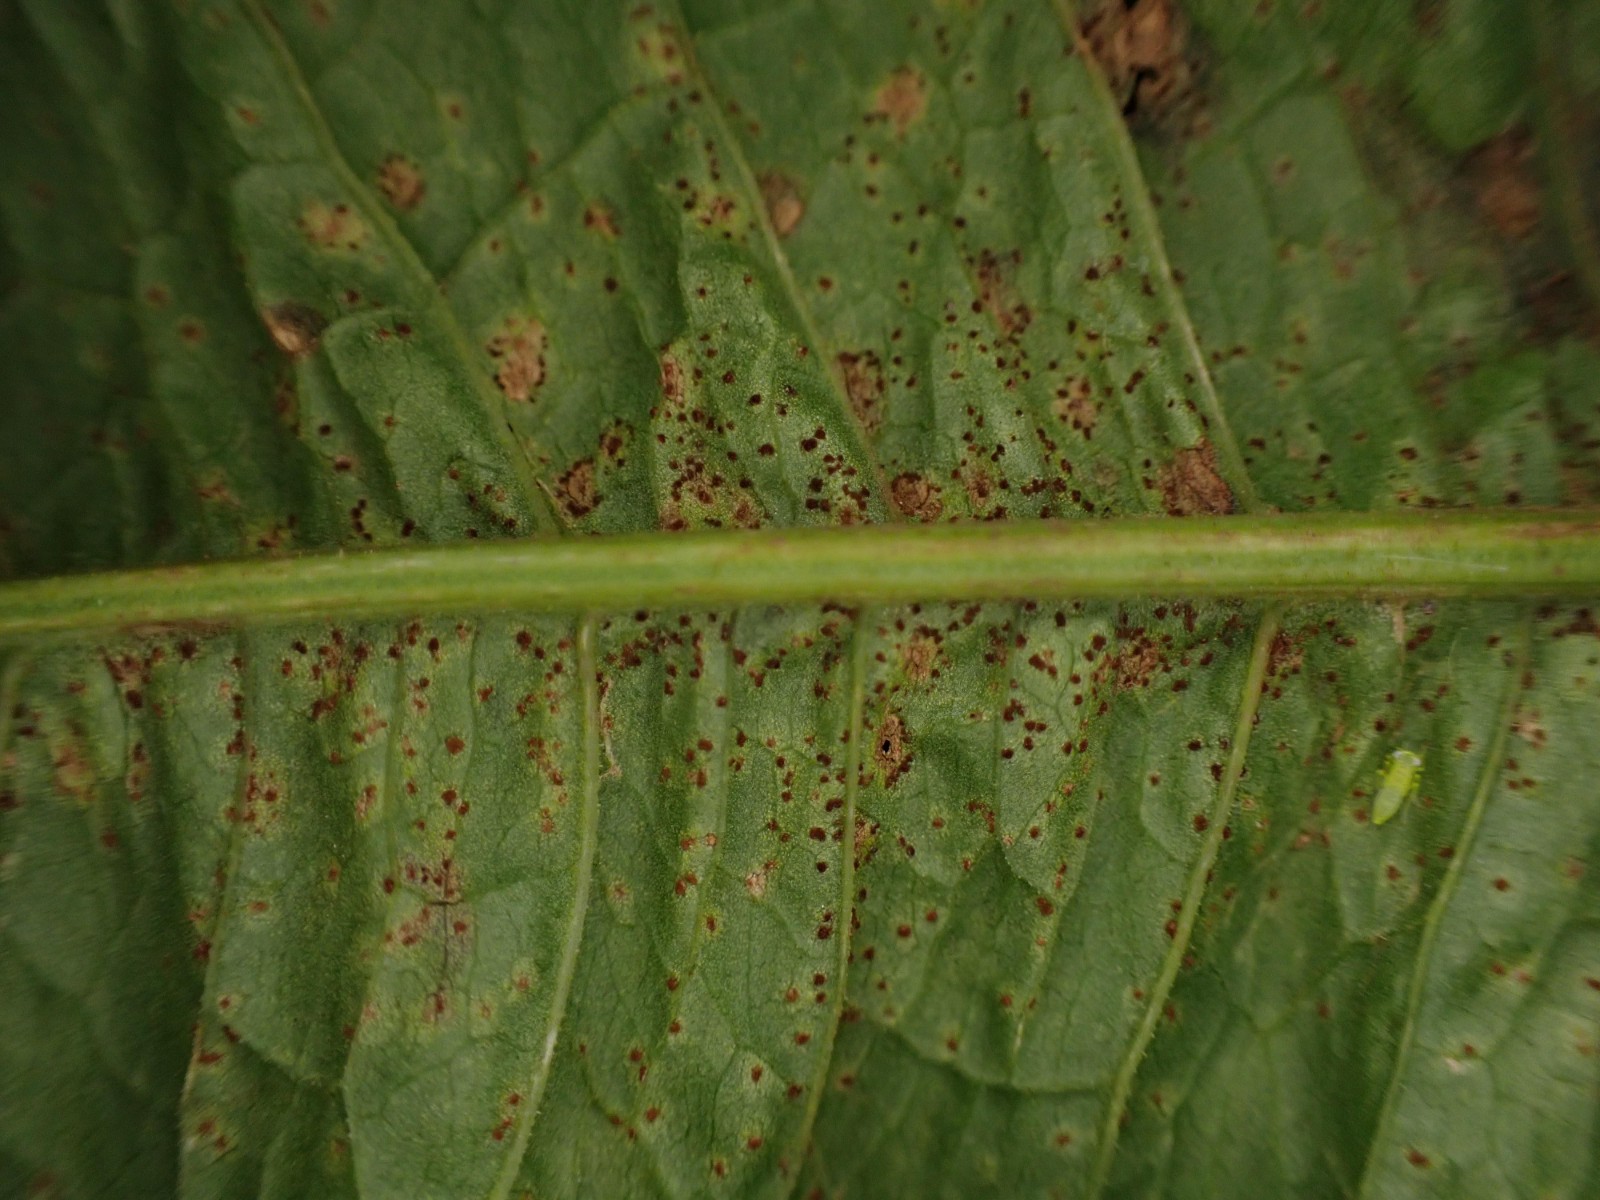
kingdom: Fungi
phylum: Basidiomycota
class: Pucciniomycetes
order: Pucciniales
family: Pucciniaceae
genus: Uromyces
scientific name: Uromyces rumicis
